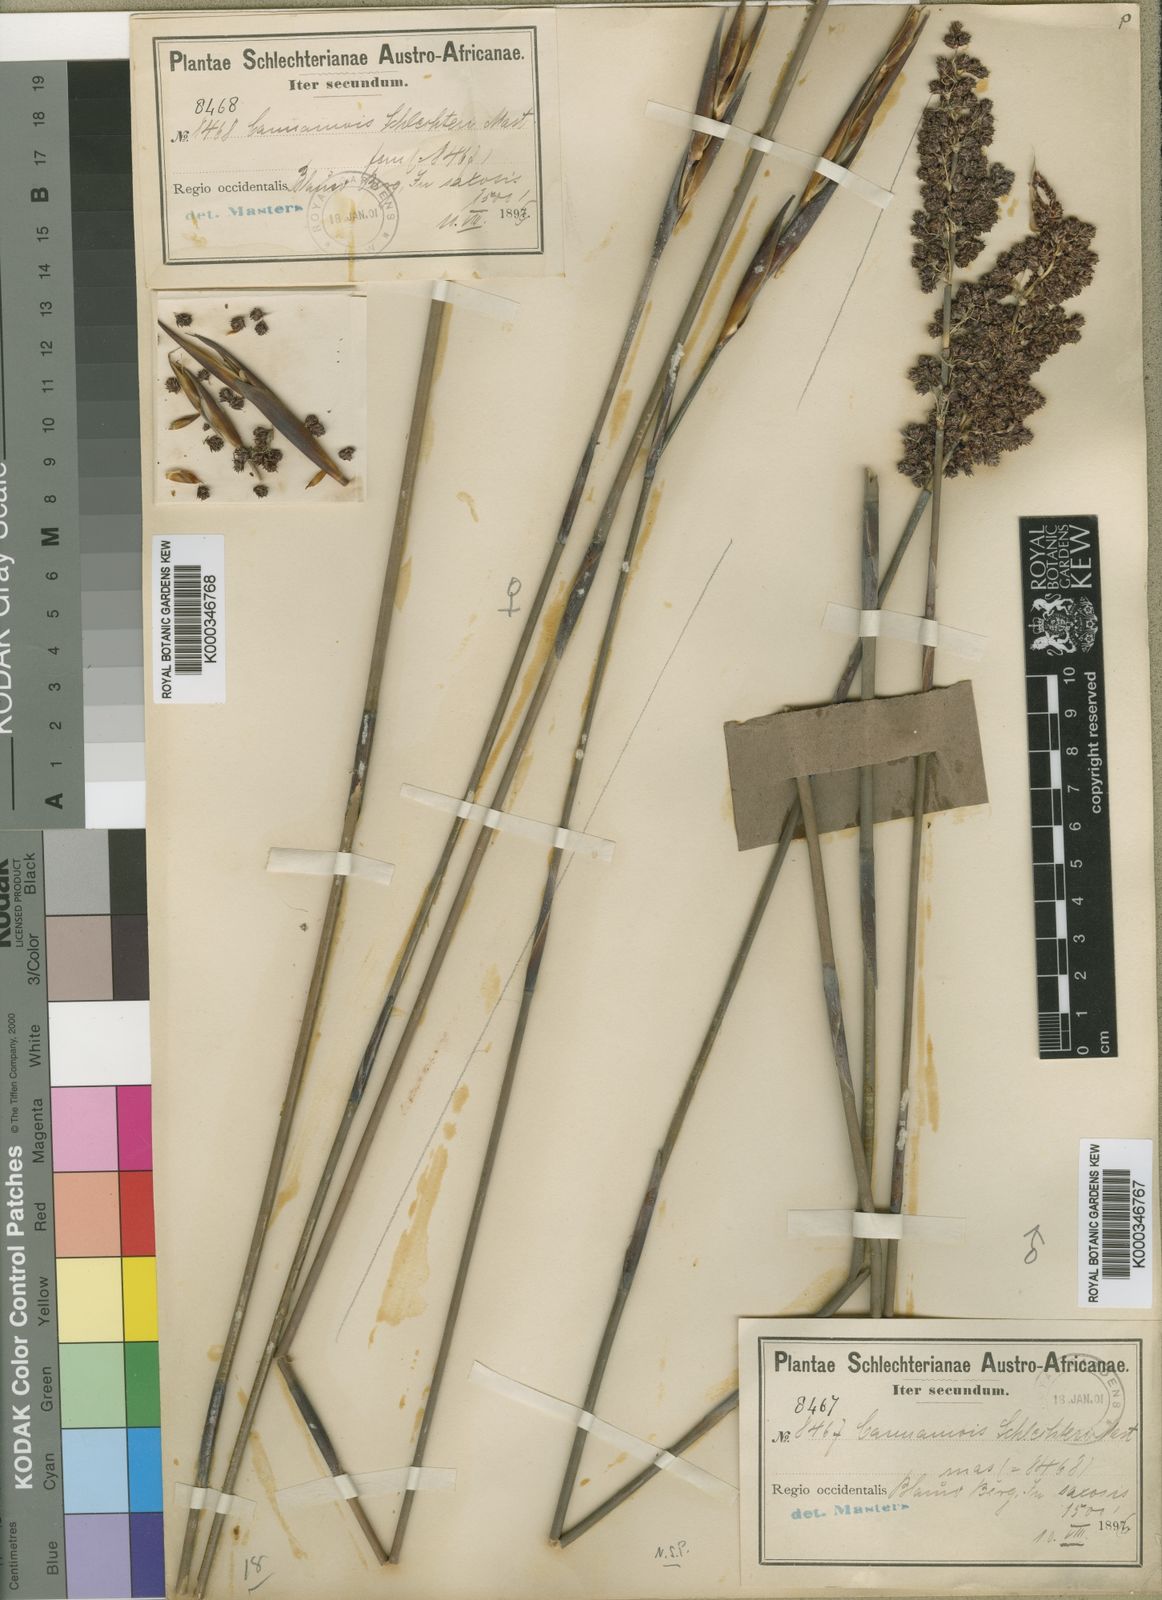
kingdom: Plantae
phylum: Tracheophyta
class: Liliopsida
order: Poales
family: Restionaceae
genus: Cannomois
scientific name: Cannomois parviflora
